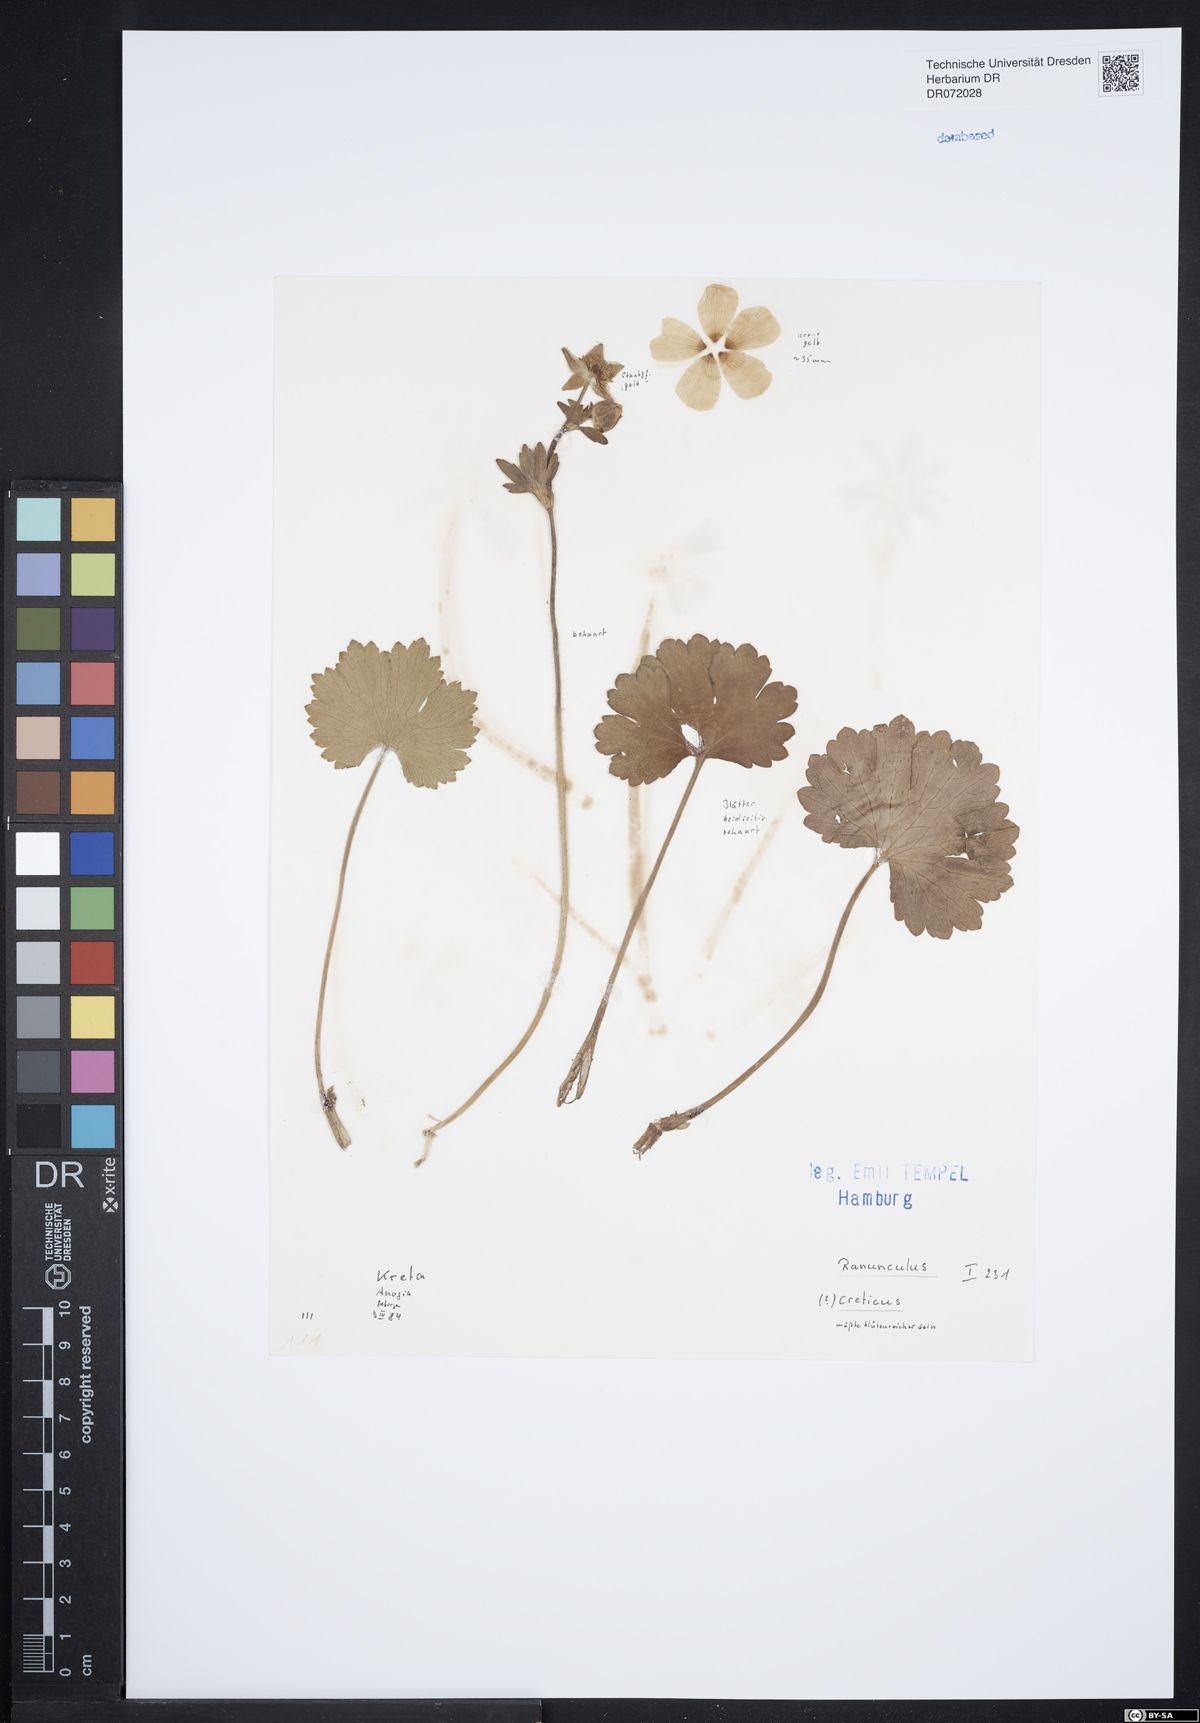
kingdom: Plantae
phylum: Tracheophyta
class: Magnoliopsida
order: Ranunculales
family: Ranunculaceae
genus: Ranunculus
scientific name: Ranunculus creticus
